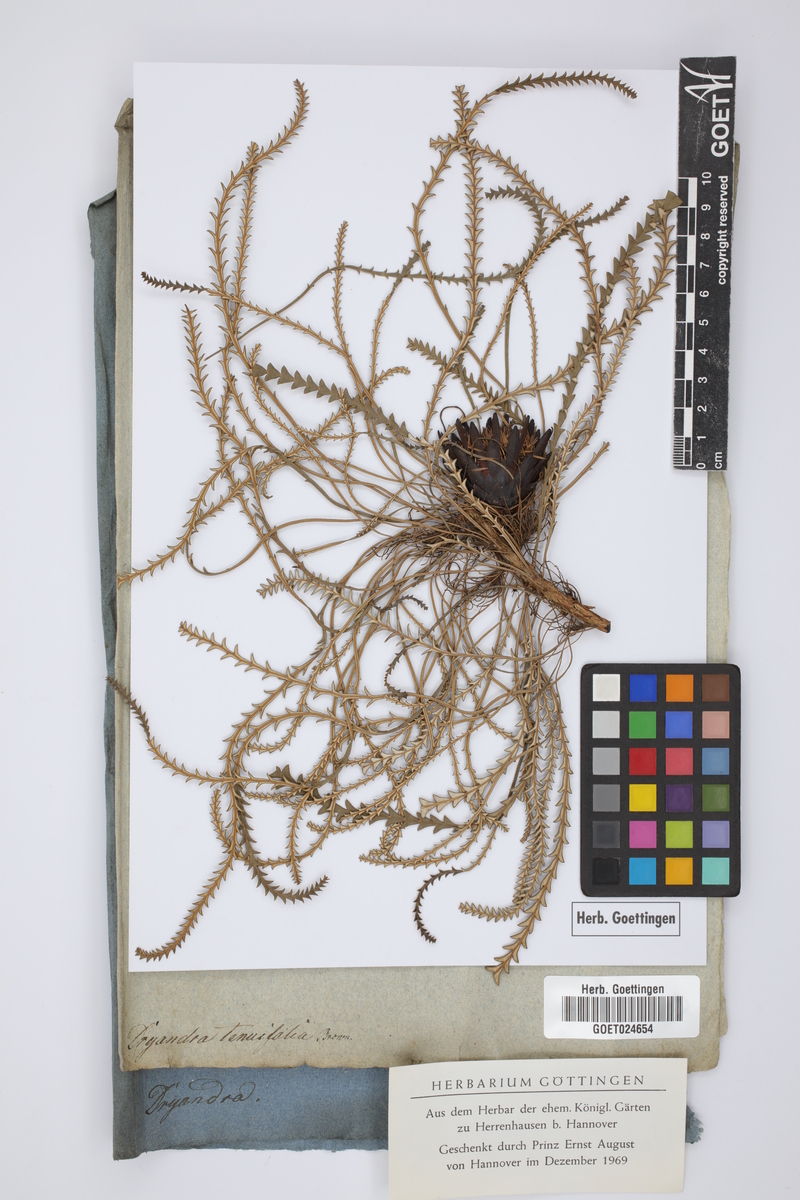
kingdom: Plantae
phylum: Tracheophyta
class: Magnoliopsida
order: Proteales
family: Proteaceae
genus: Banksia
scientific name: Banksia tenuis
